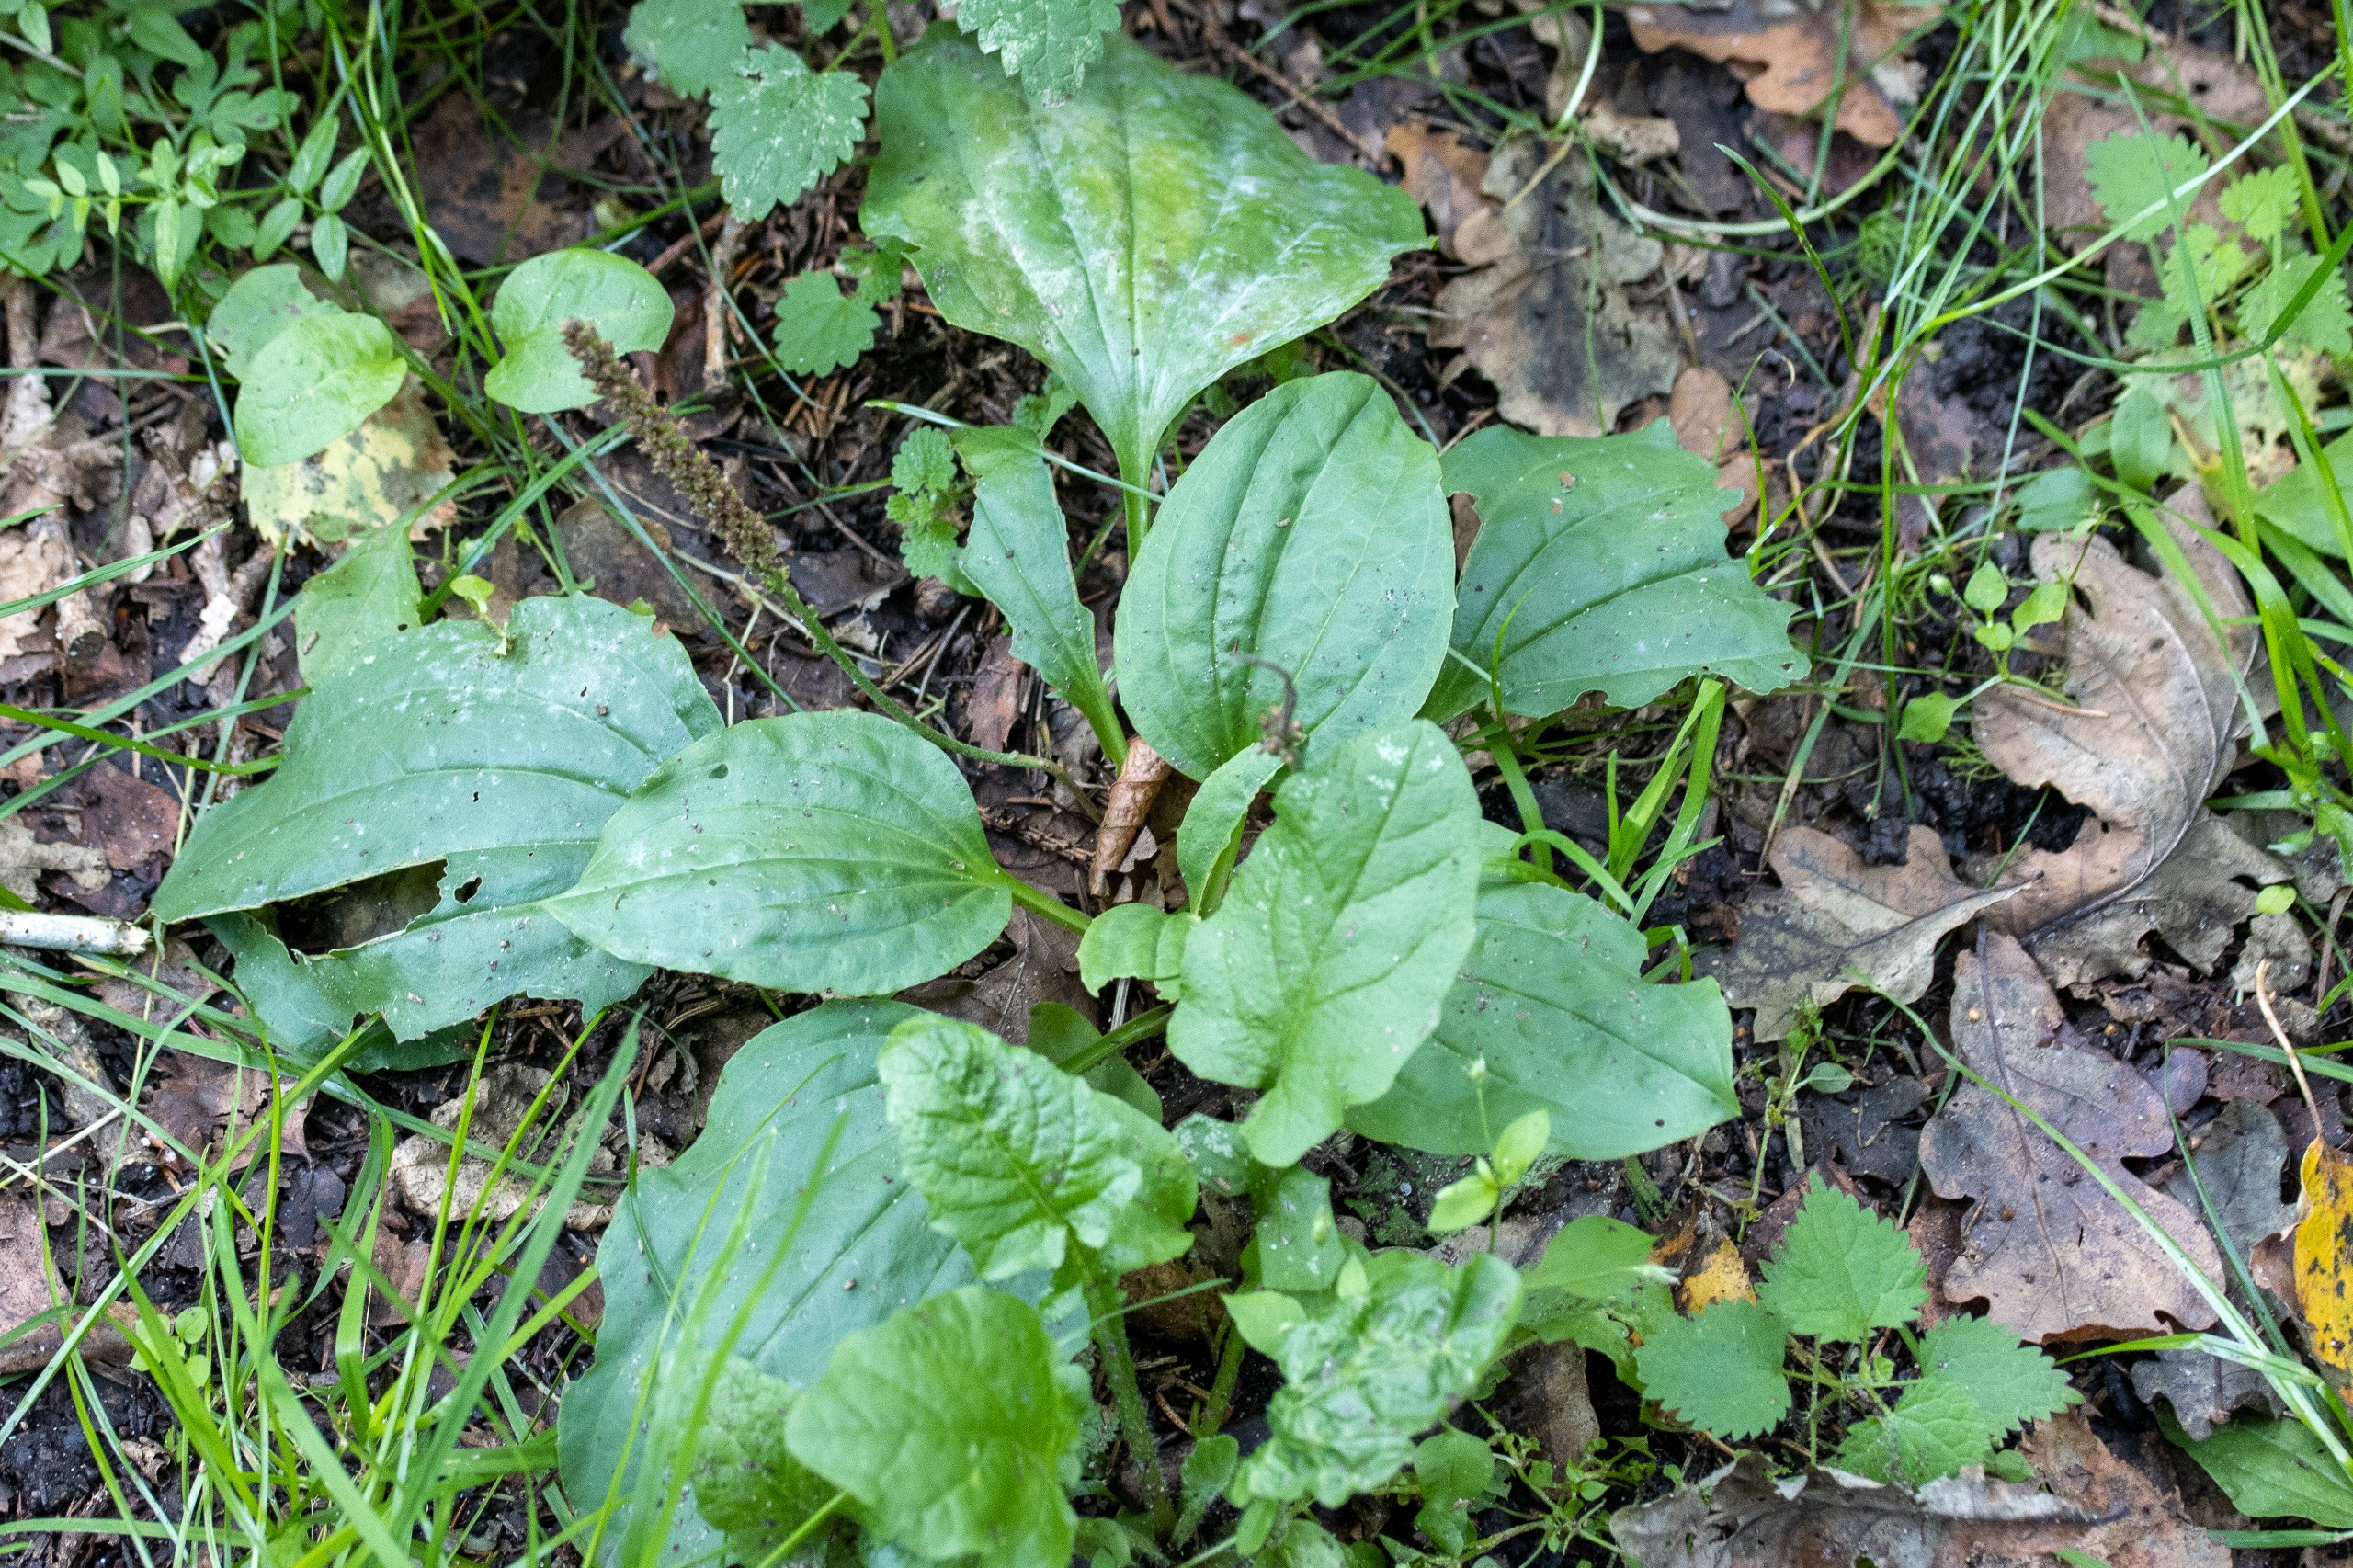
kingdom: Plantae
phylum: Tracheophyta
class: Magnoliopsida
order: Lamiales
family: Plantaginaceae
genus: Plantago
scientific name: Plantago major
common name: Glat vejbred
